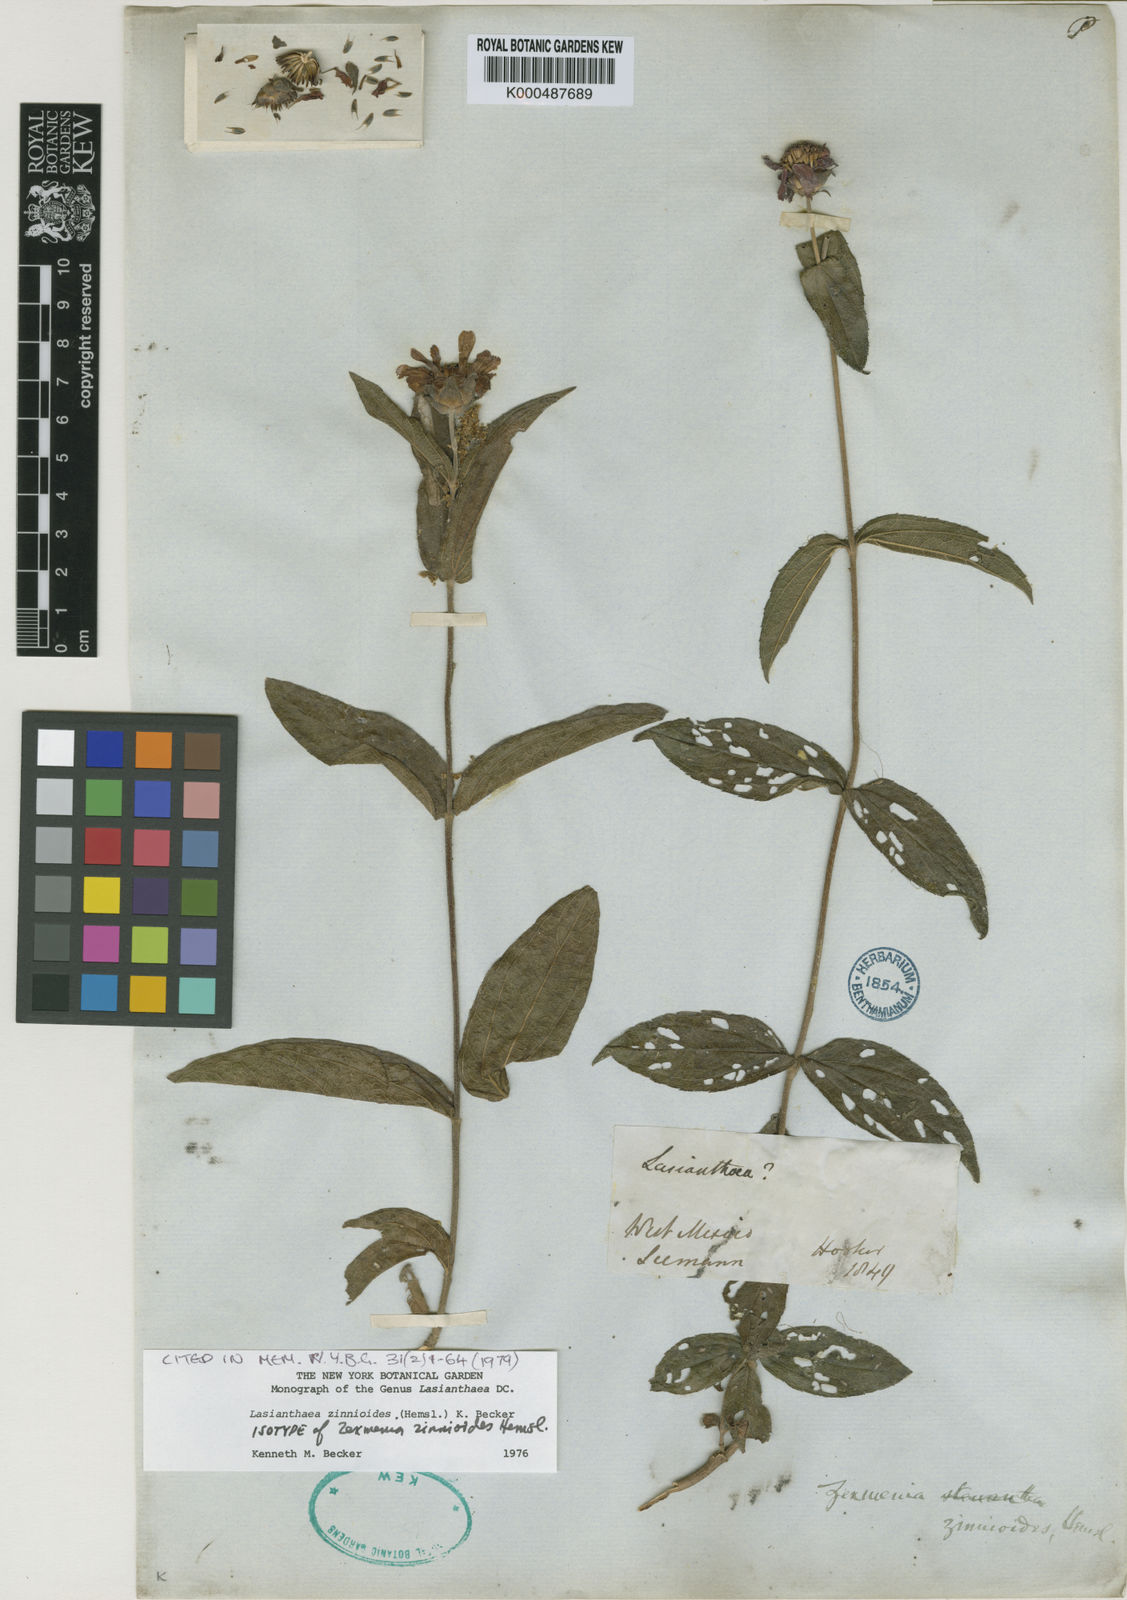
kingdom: Plantae
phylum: Tracheophyta
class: Magnoliopsida
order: Asterales
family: Asteraceae
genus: Lasianthaea
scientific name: Lasianthaea zinnioides
